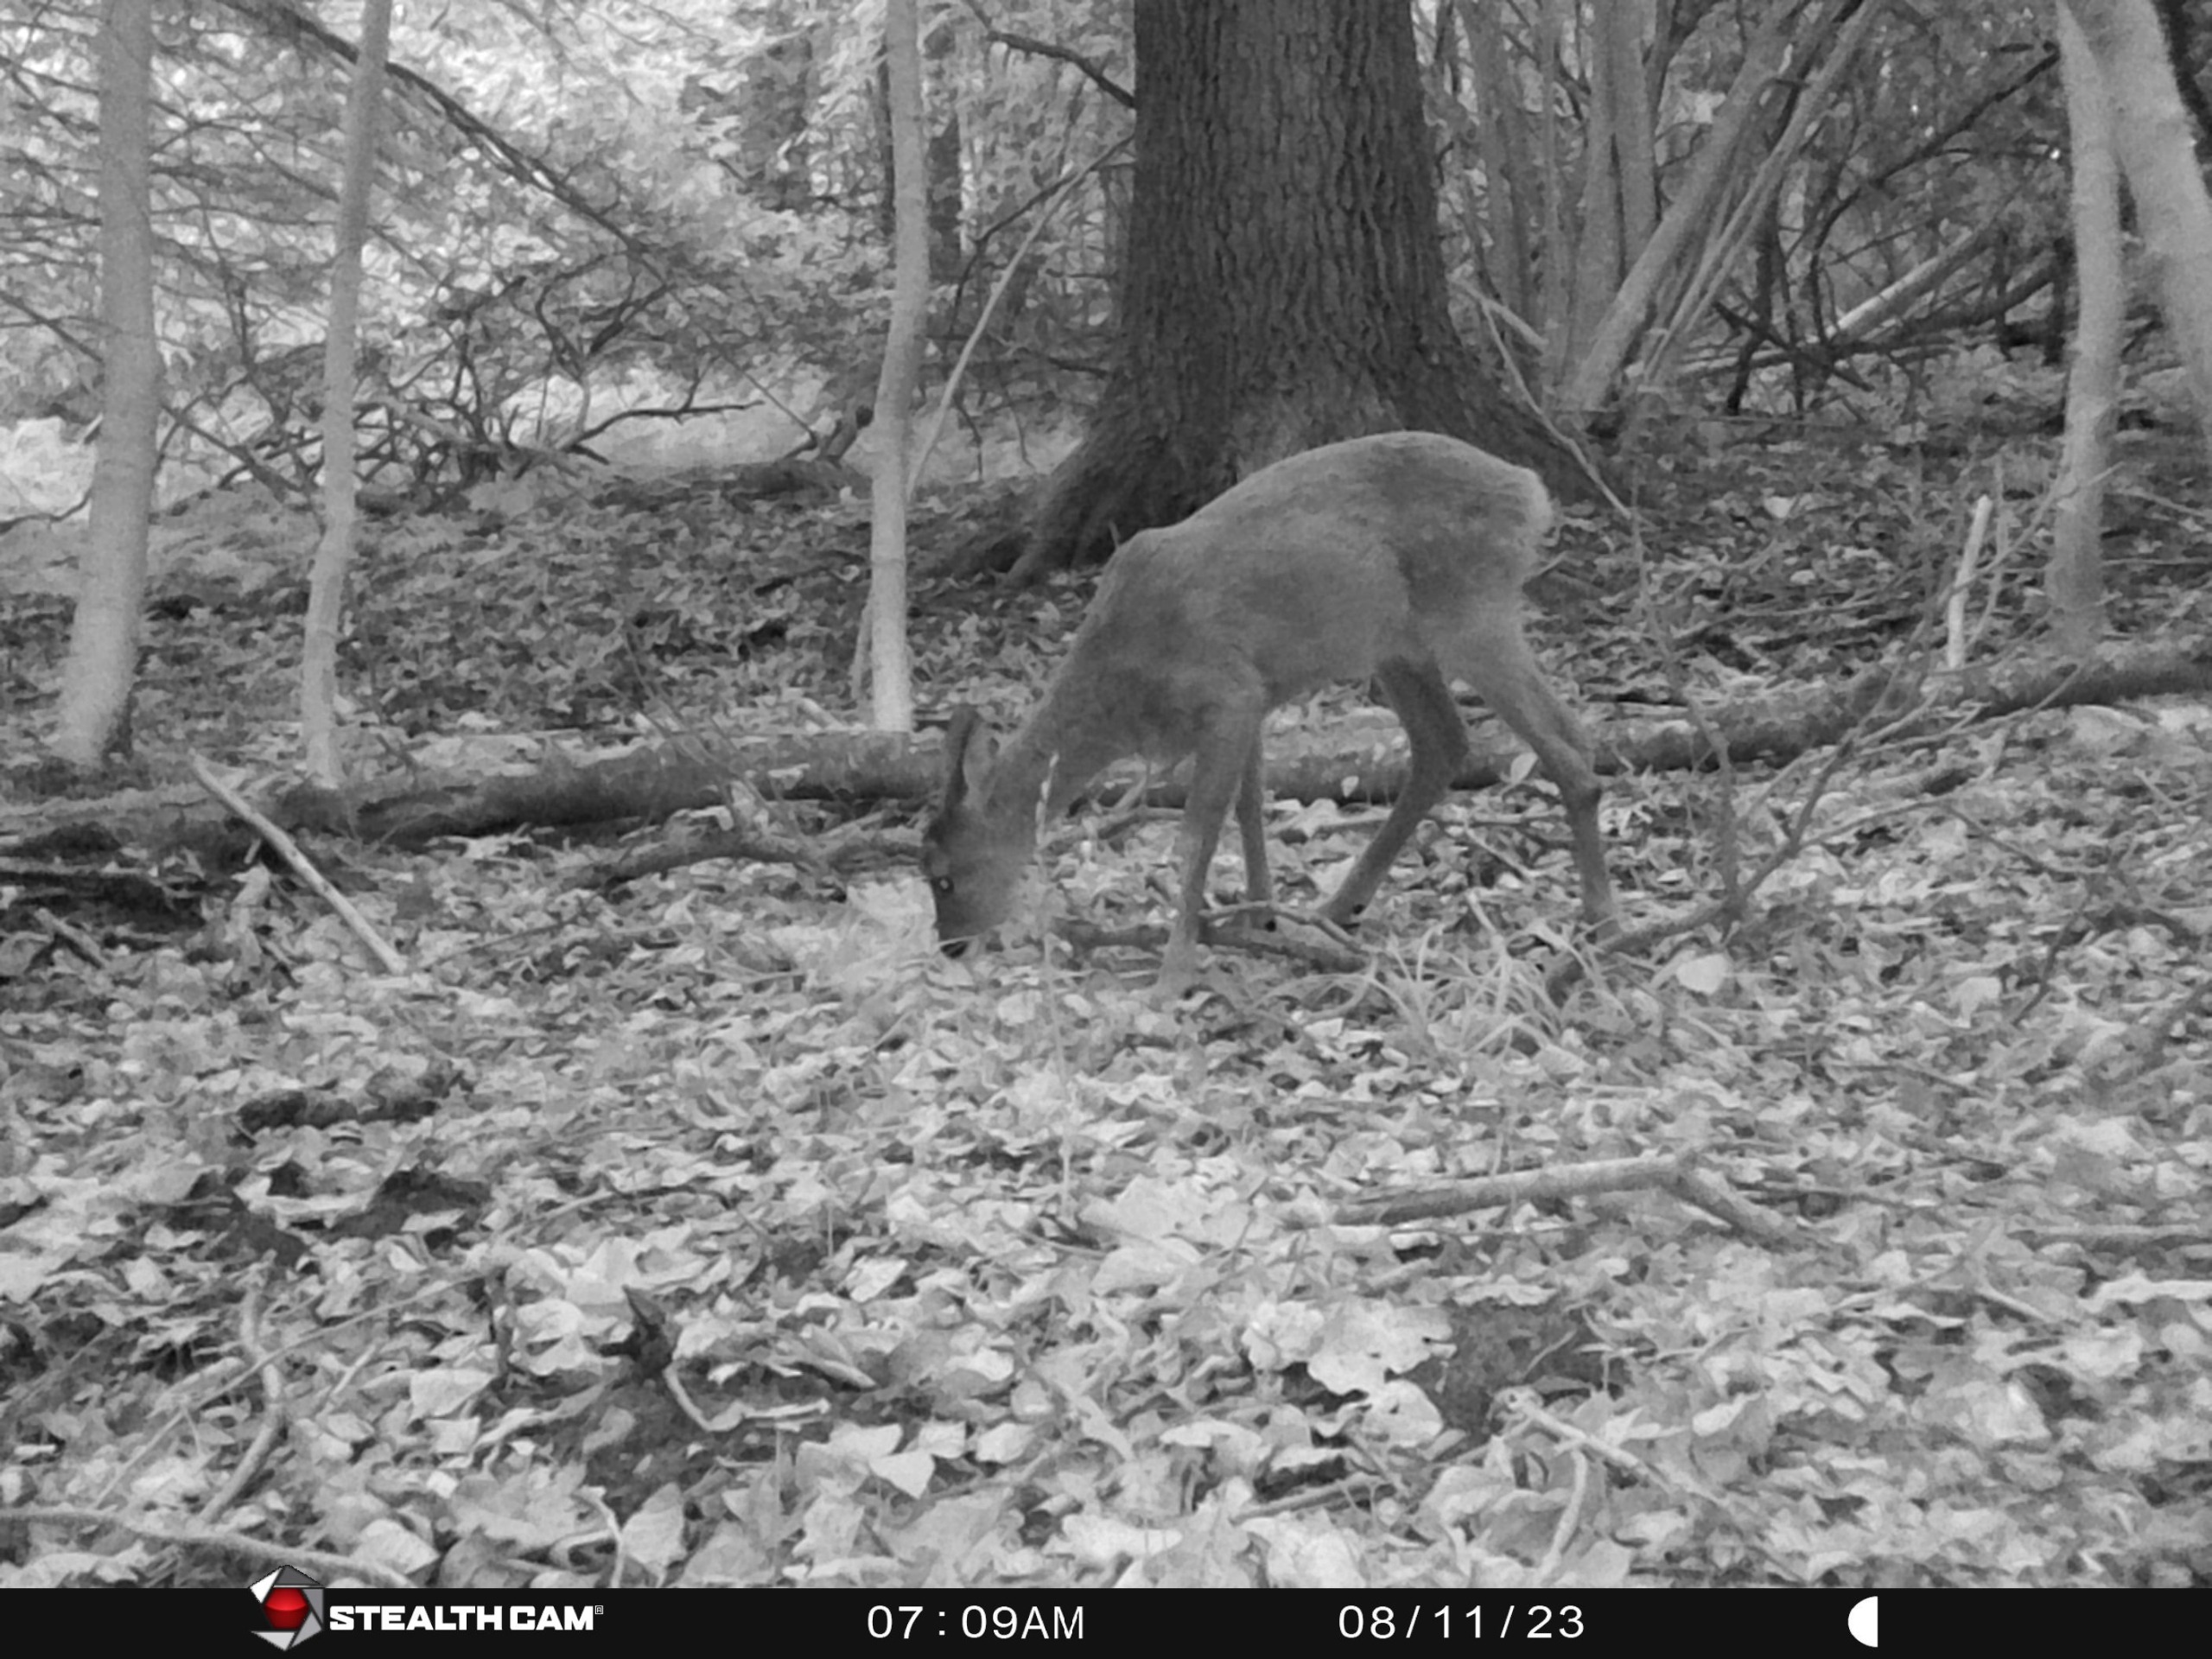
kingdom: Animalia
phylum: Chordata
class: Mammalia
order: Artiodactyla
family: Cervidae
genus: Capreolus
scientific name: Capreolus capreolus
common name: Rådyr
